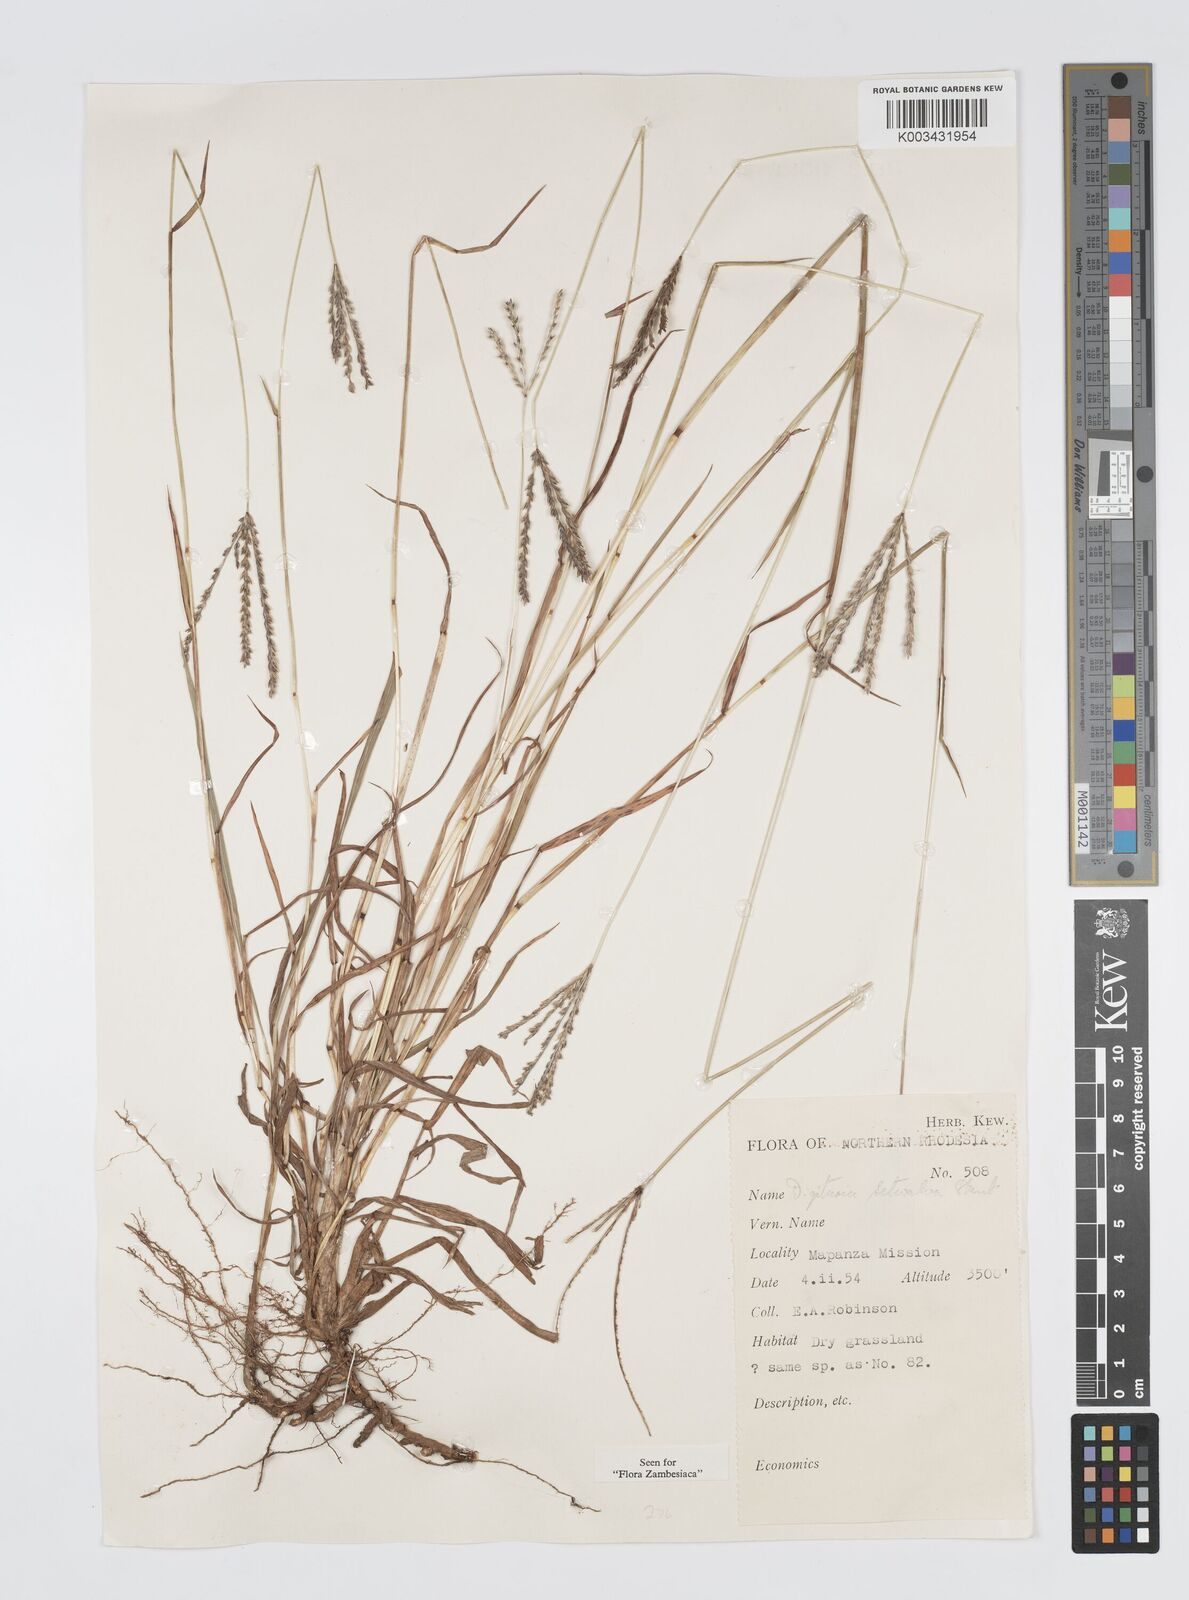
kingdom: Plantae
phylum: Tracheophyta
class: Liliopsida
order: Poales
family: Poaceae
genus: Digitaria
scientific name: Digitaria milanjiana
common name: Madagascar crabgrass
